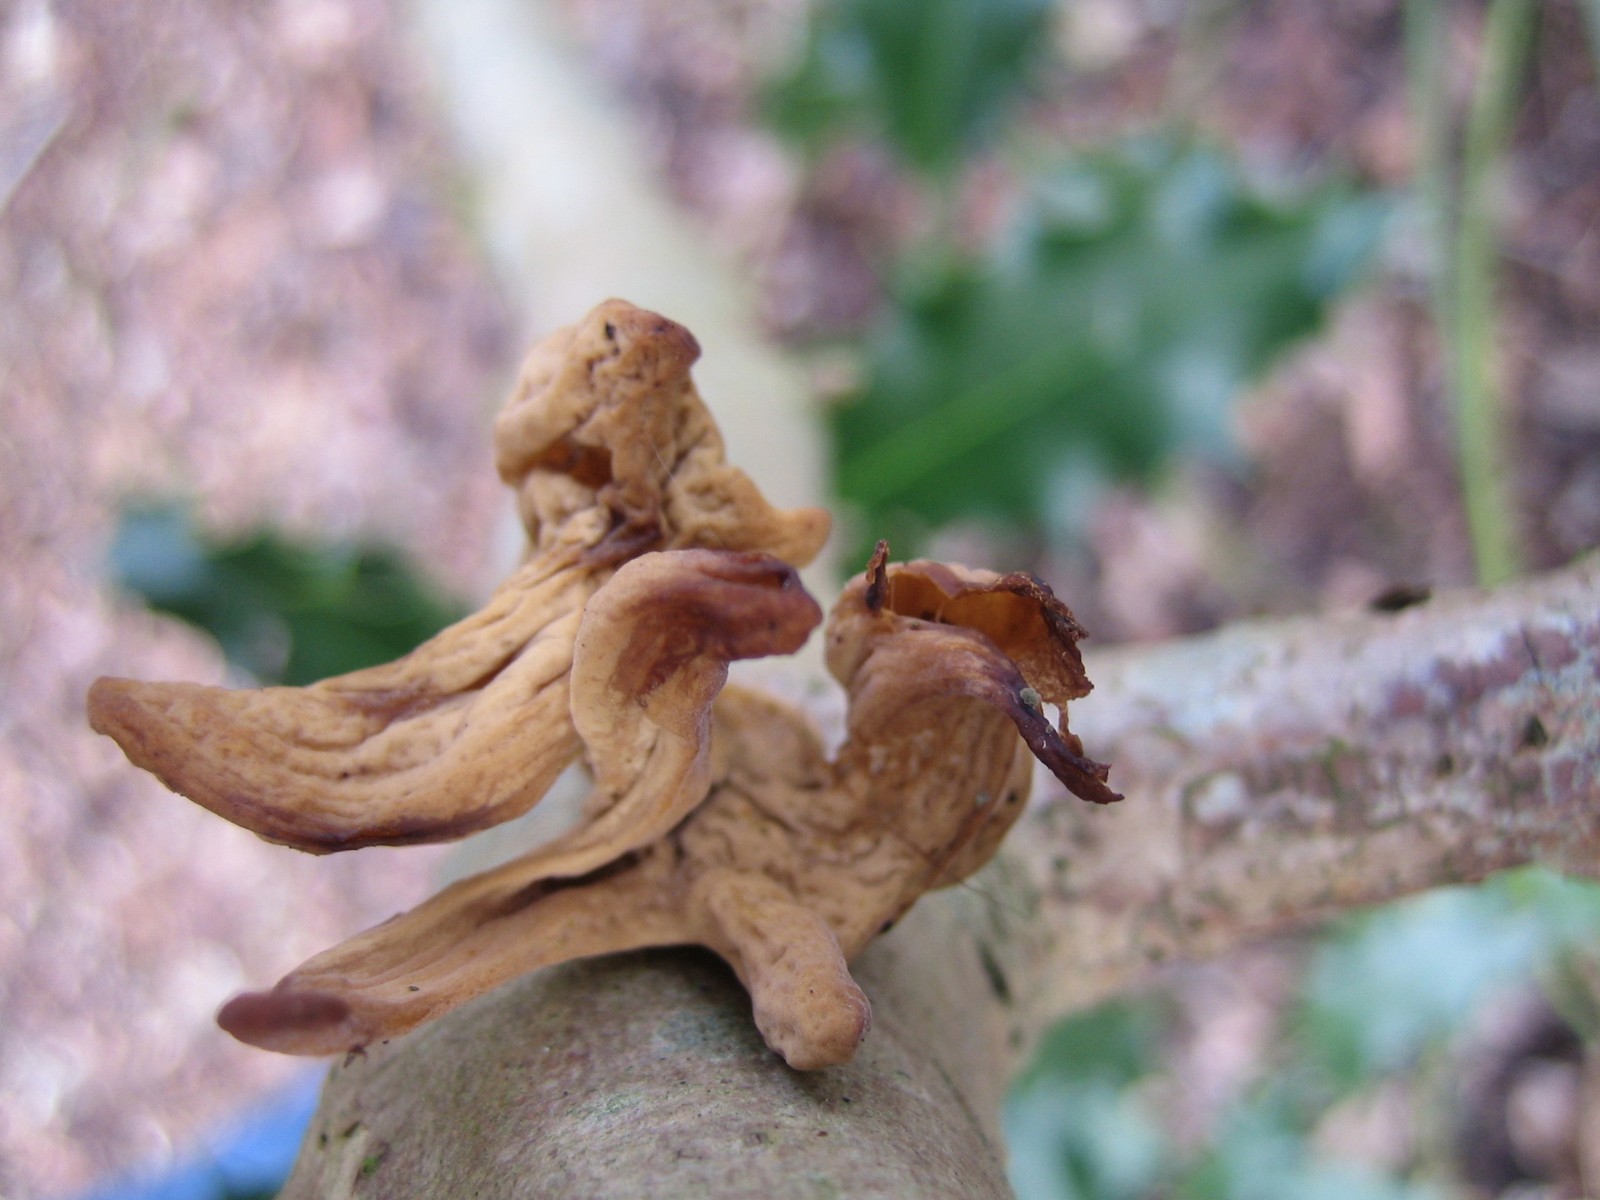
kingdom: Fungi
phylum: Basidiomycota
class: Agaricomycetes
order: Agaricales
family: Typhulaceae
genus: Typhula
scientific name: Typhula contorta
